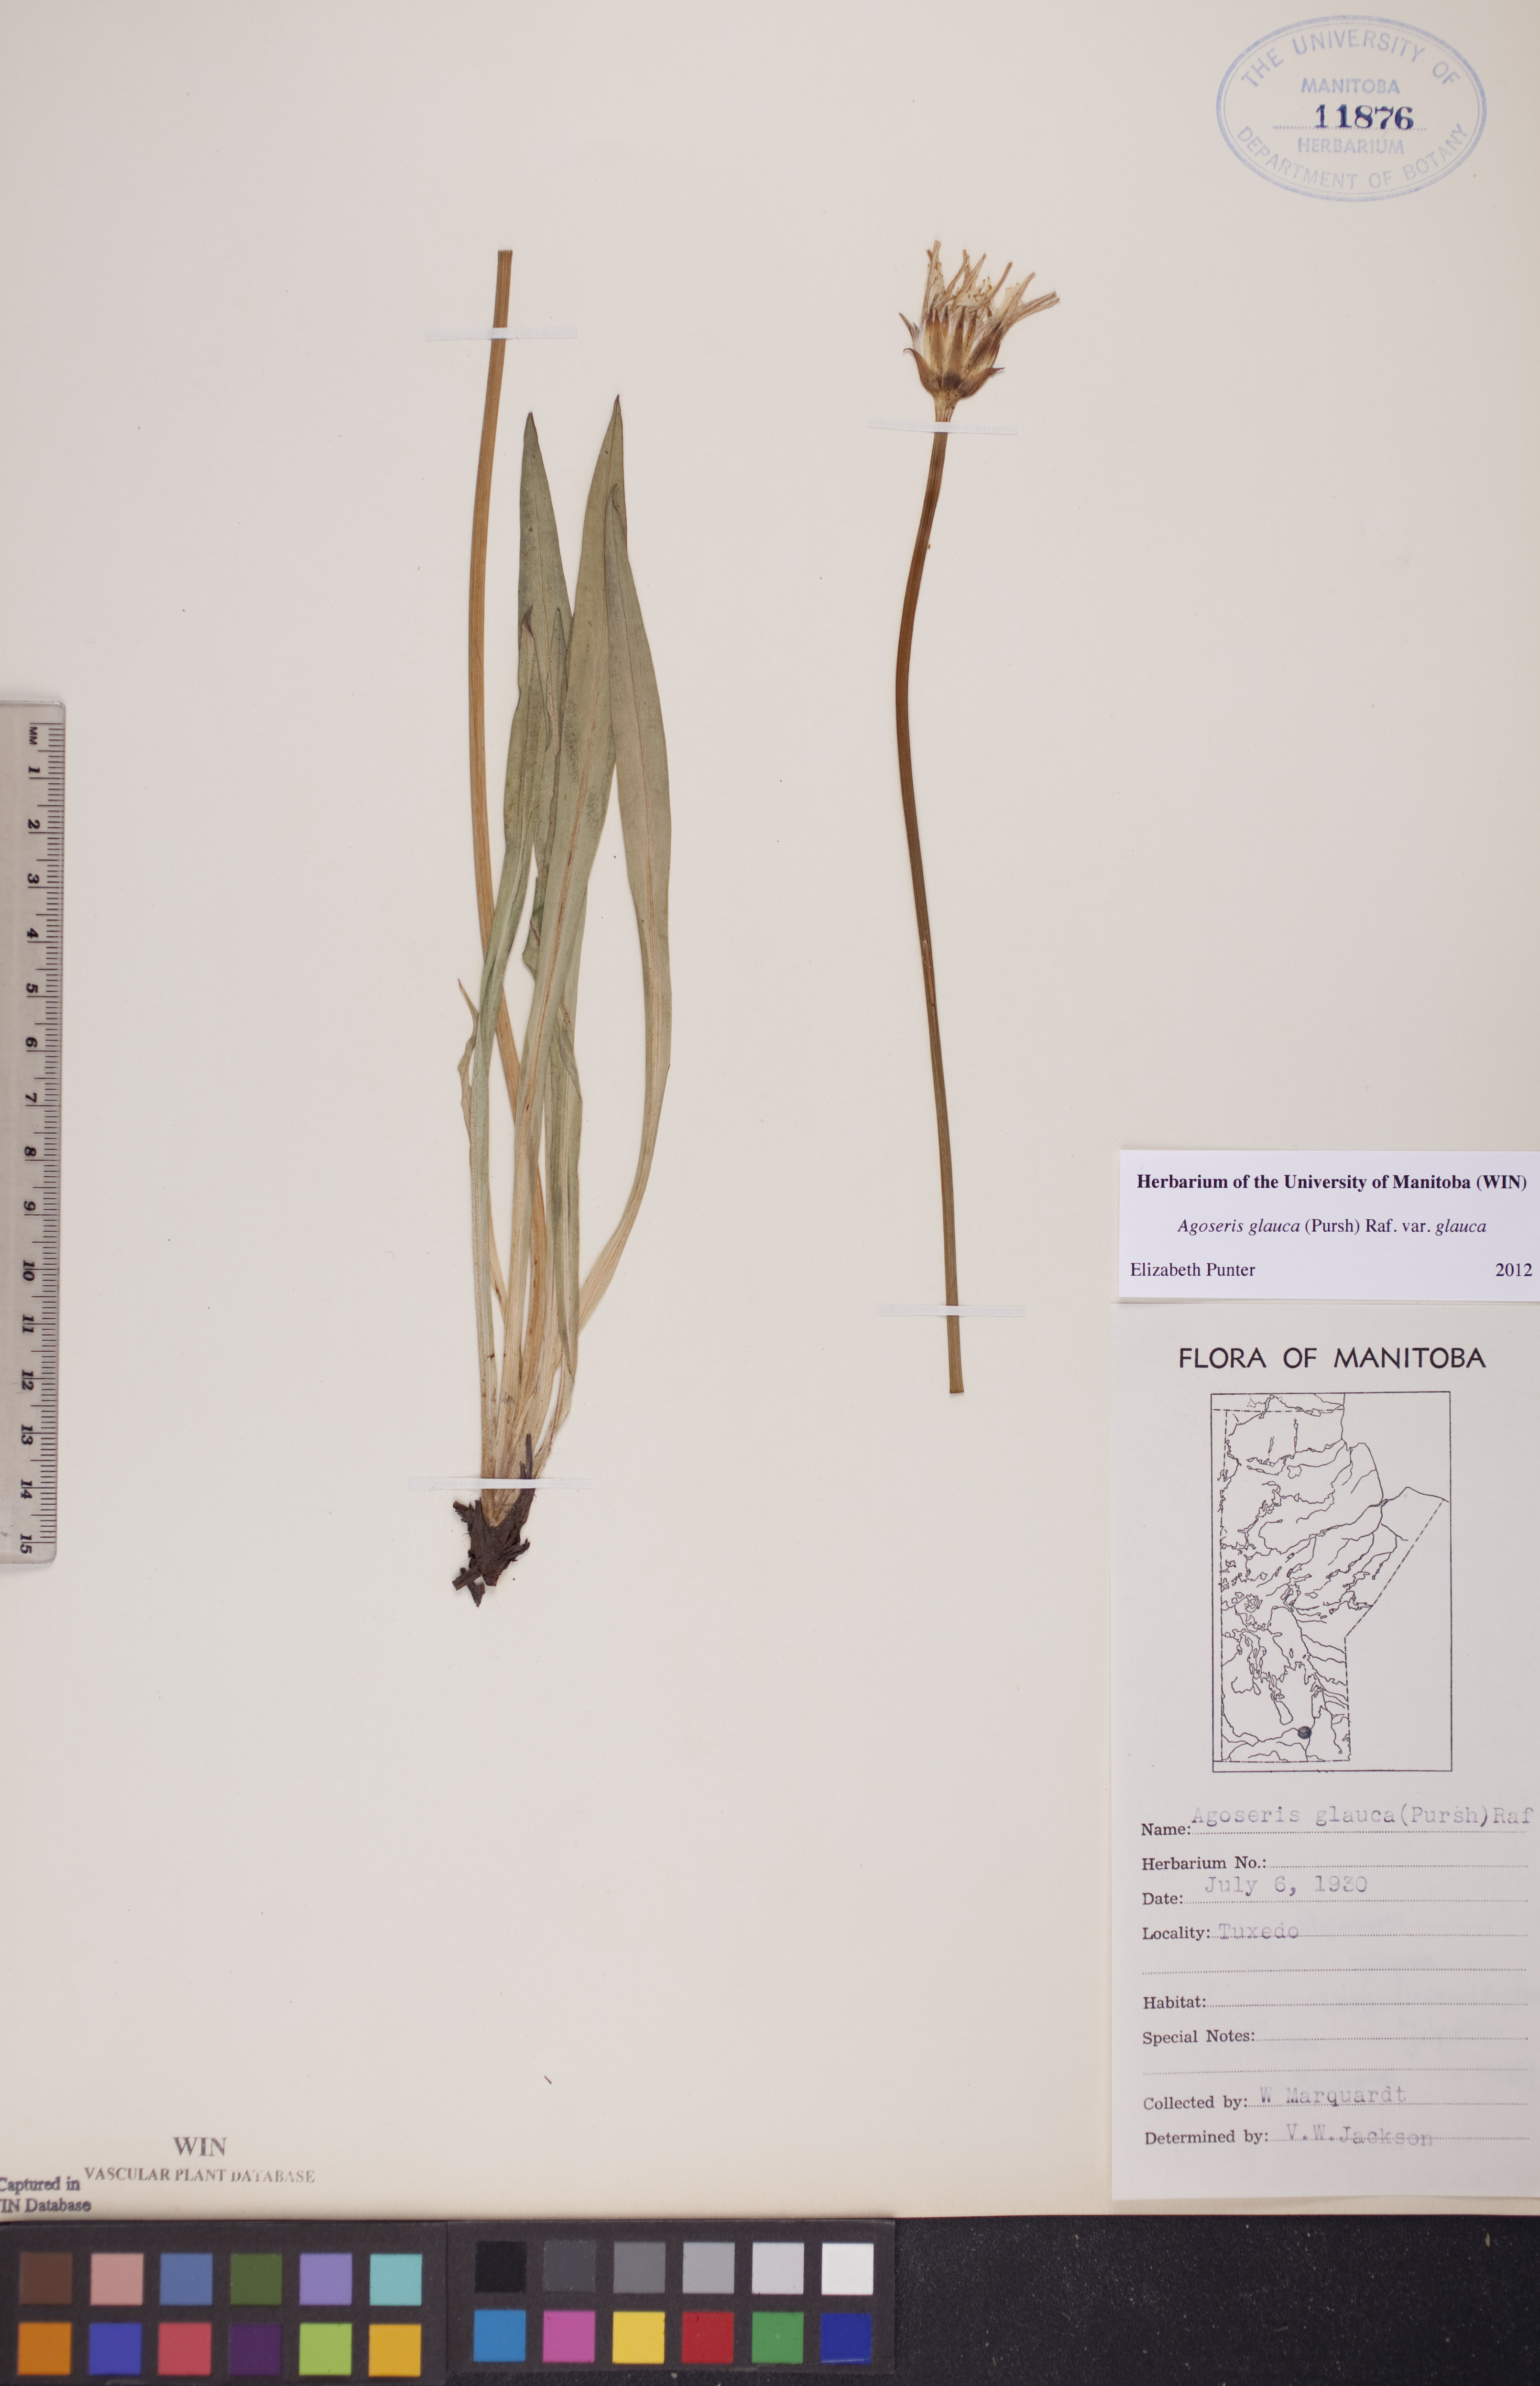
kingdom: Plantae
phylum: Tracheophyta
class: Magnoliopsida
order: Asterales
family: Asteraceae
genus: Agoseris
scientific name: Agoseris glauca
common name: Prairie agoseris
